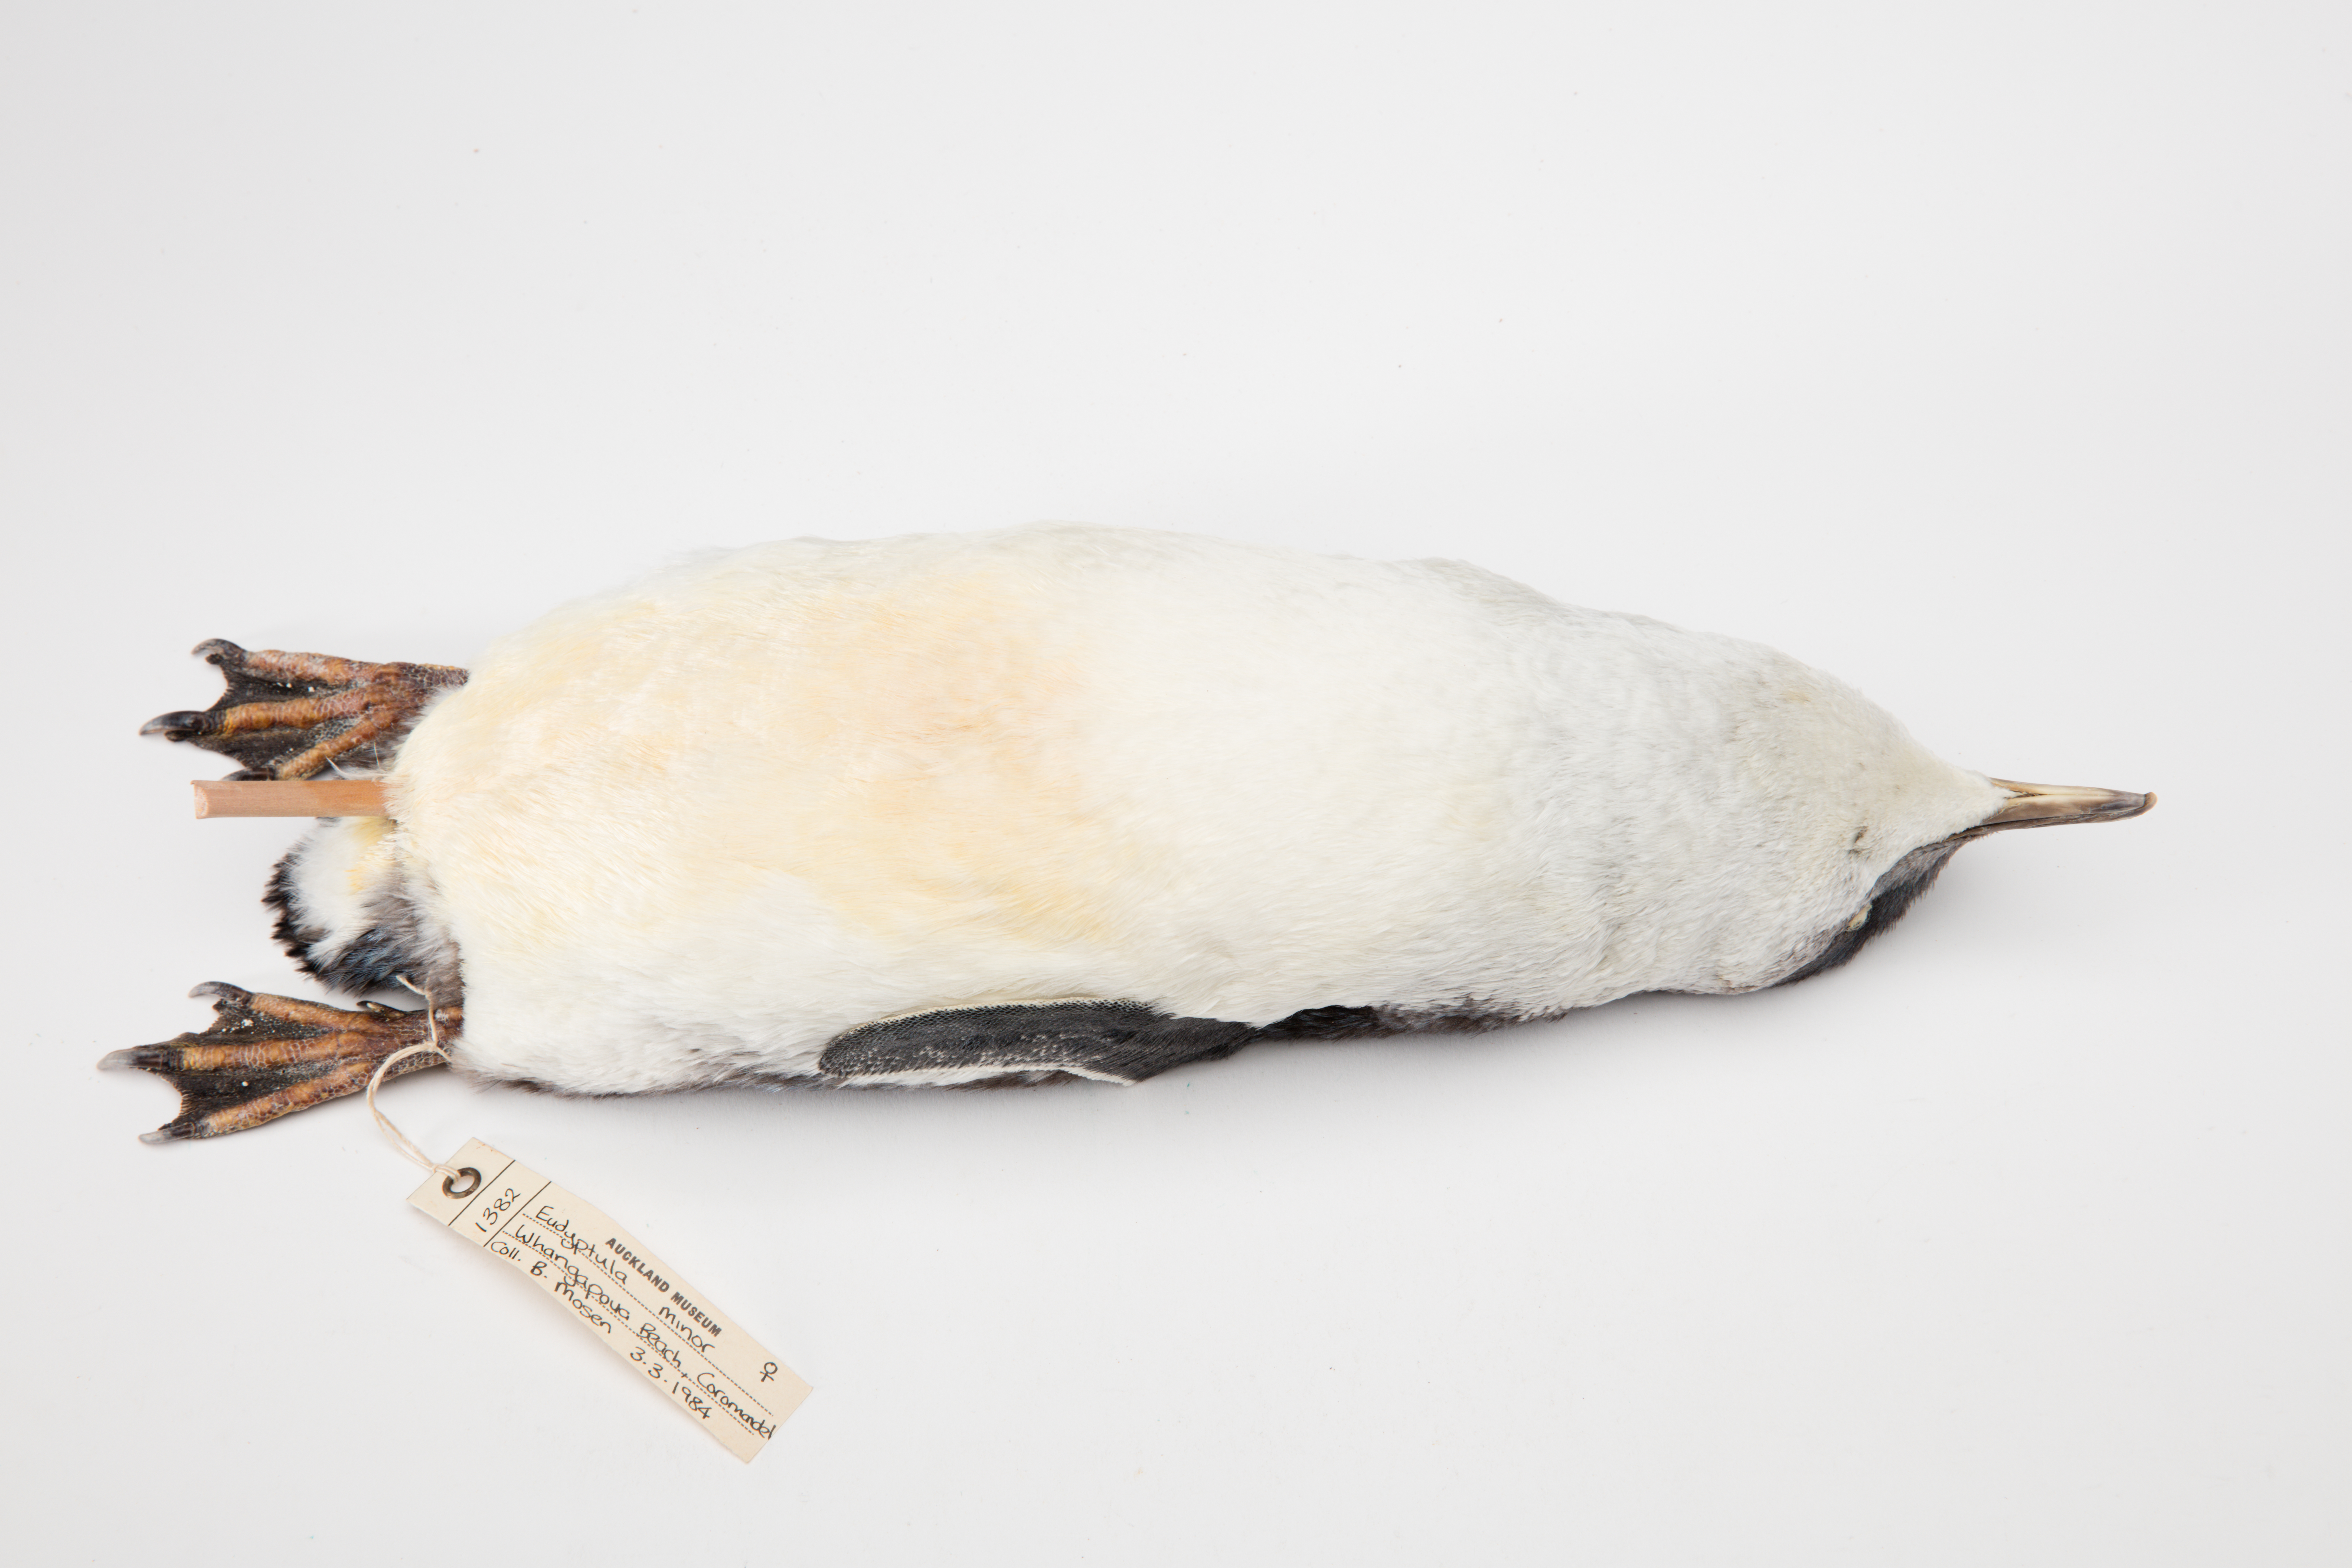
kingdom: Animalia
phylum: Chordata
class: Aves
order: Sphenisciformes
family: Spheniscidae
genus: Eudyptula
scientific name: Eudyptula minor
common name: Little penguin
